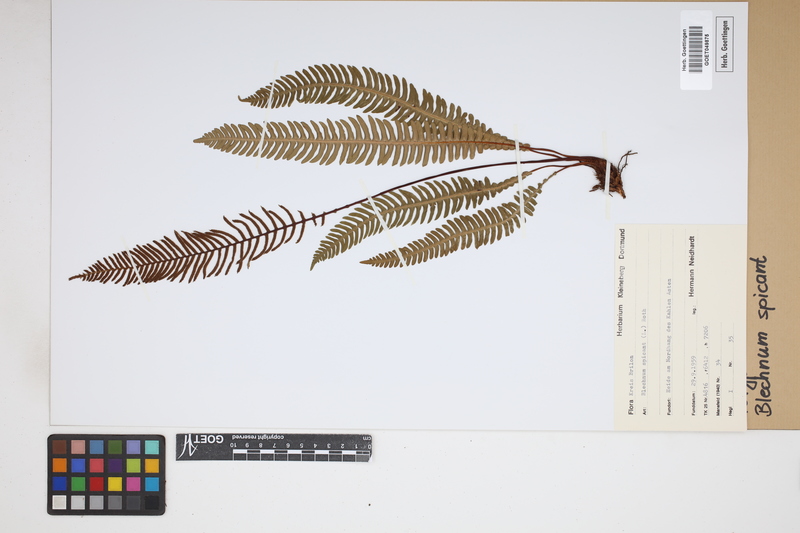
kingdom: Plantae
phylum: Tracheophyta
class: Polypodiopsida
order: Polypodiales
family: Blechnaceae
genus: Struthiopteris
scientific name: Struthiopteris spicant
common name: Deer fern
